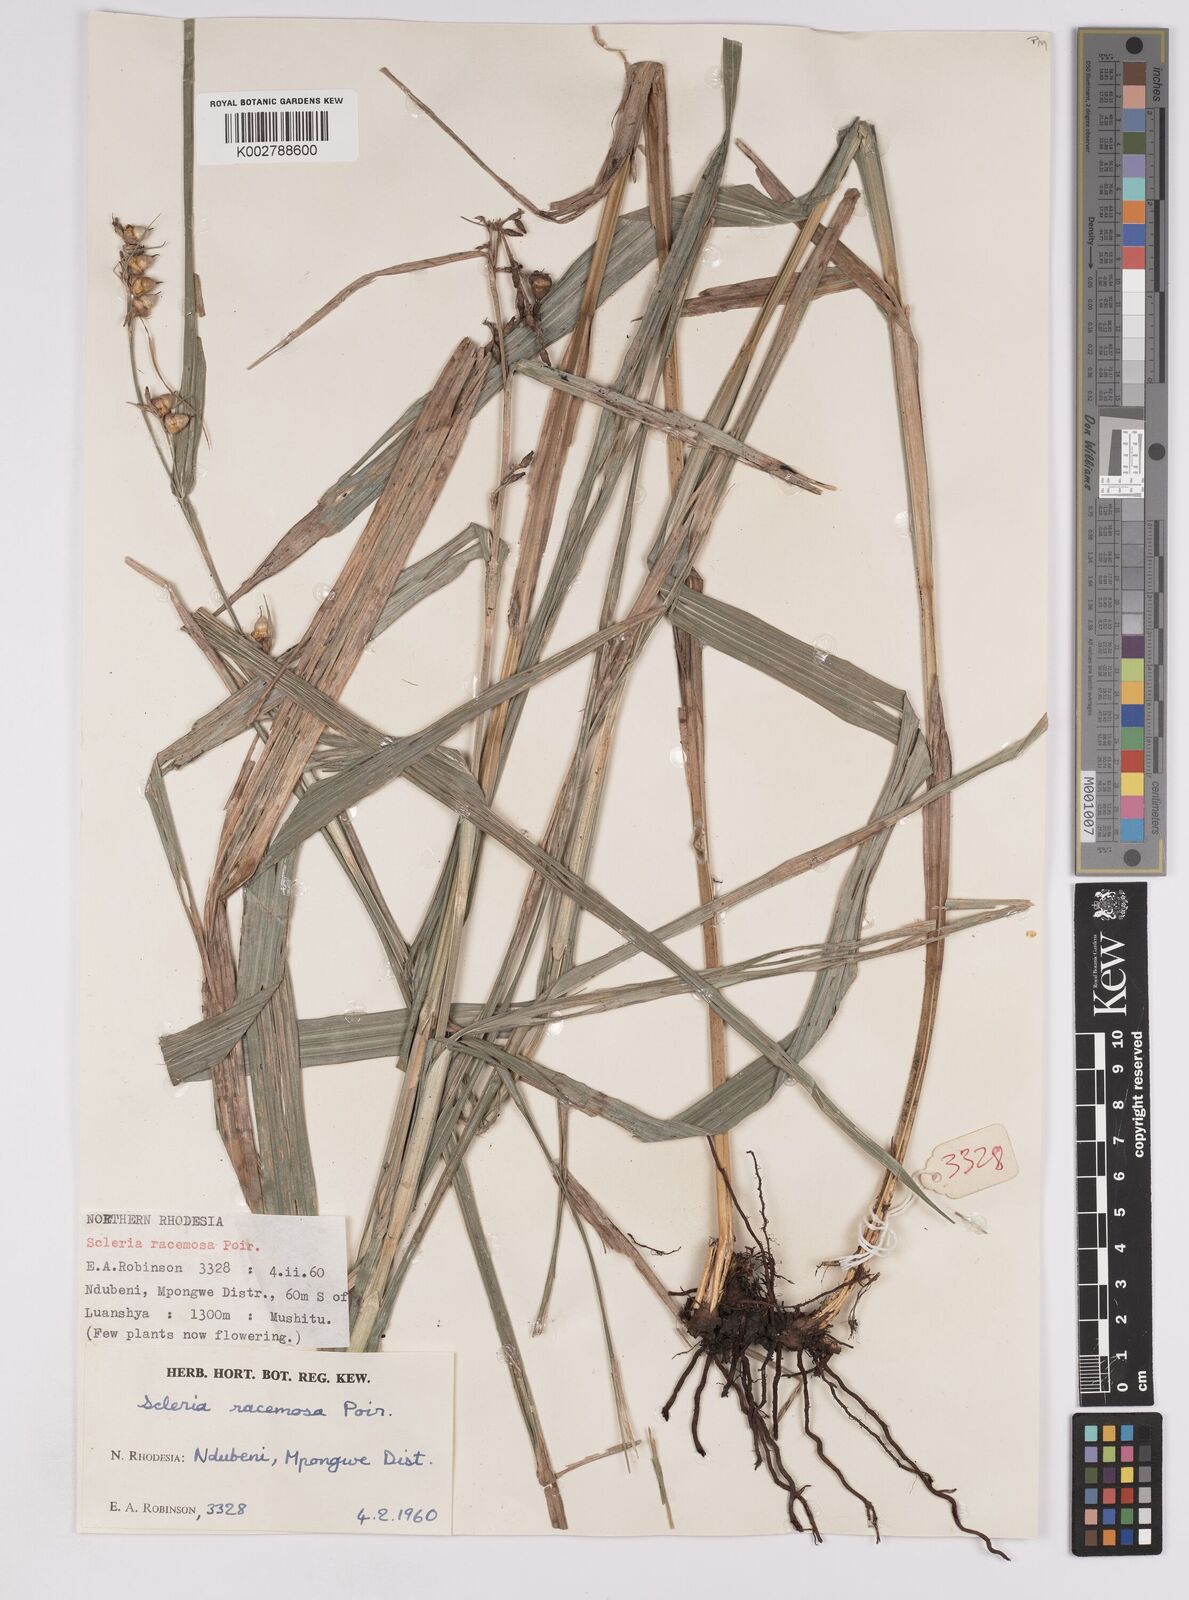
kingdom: Plantae
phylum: Tracheophyta
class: Liliopsida
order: Poales
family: Cyperaceae
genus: Scleria
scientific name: Scleria racemosa
